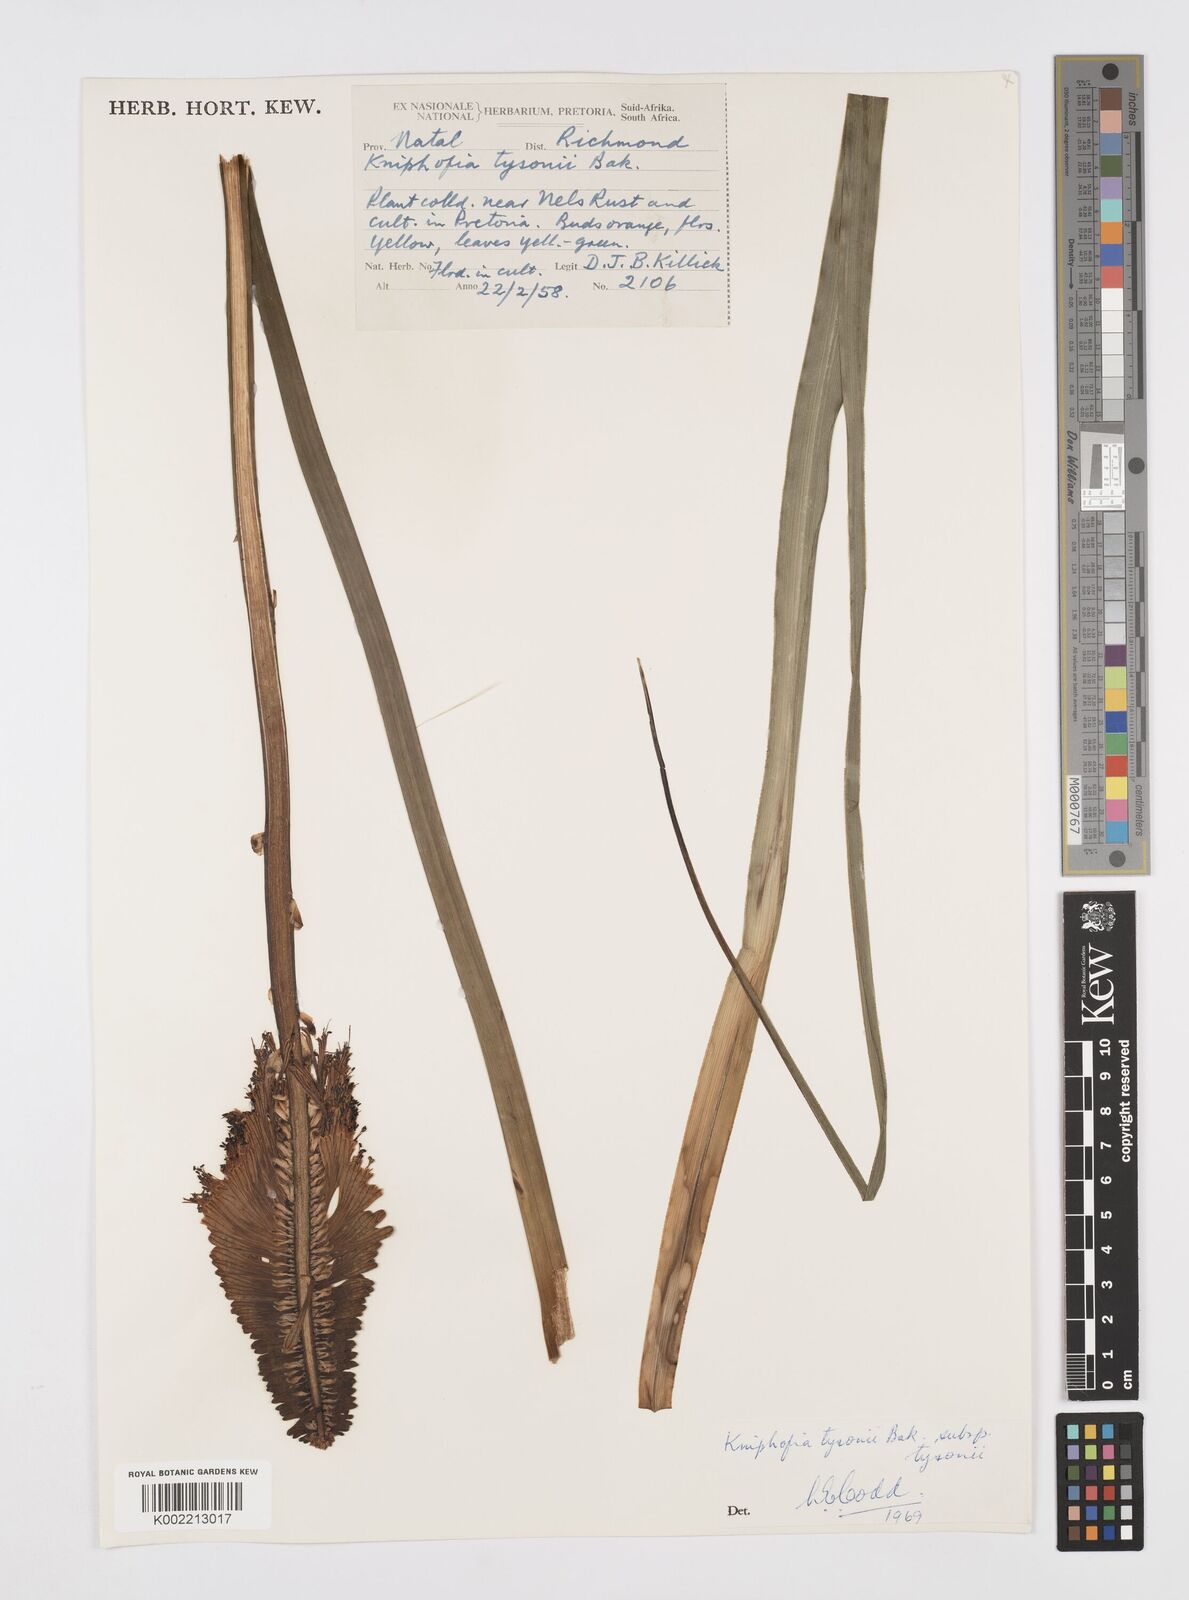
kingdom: Plantae
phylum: Tracheophyta
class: Liliopsida
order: Asparagales
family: Asphodelaceae
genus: Kniphofia
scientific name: Kniphofia tysonii
